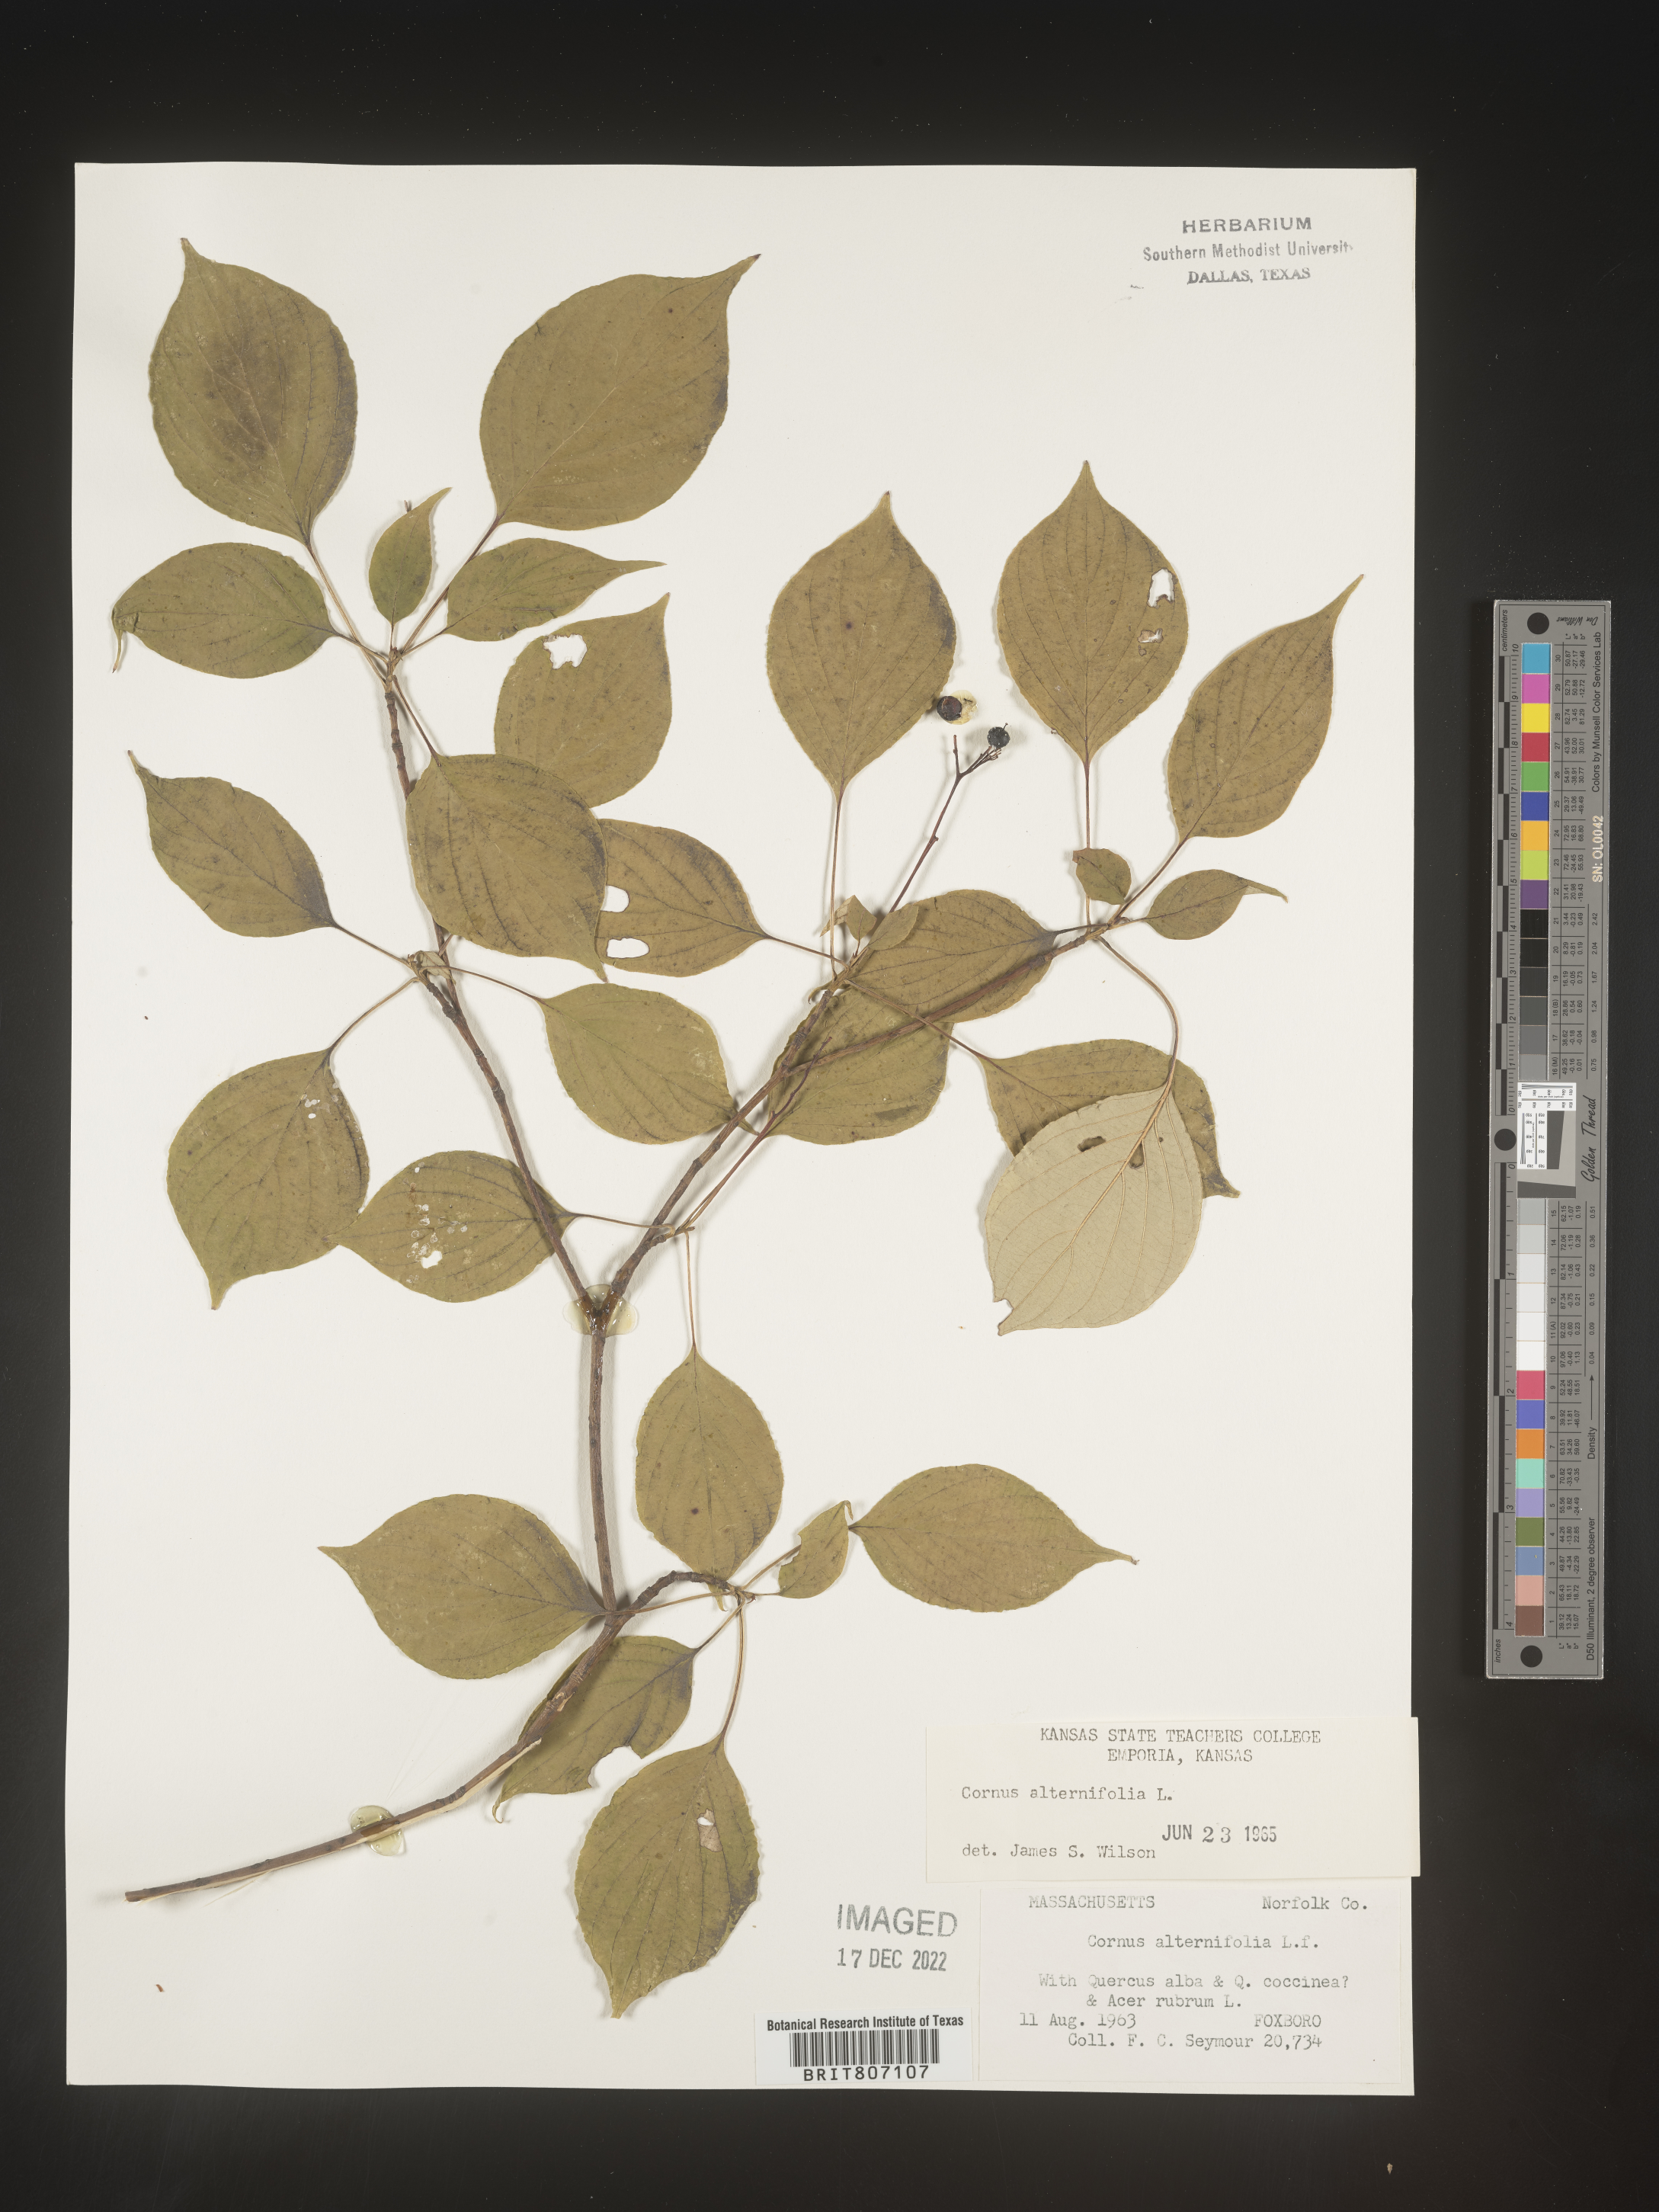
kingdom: Plantae
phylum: Tracheophyta
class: Magnoliopsida
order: Cornales
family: Cornaceae
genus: Cornus
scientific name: Cornus alternifolia
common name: Pagoda dogwood
